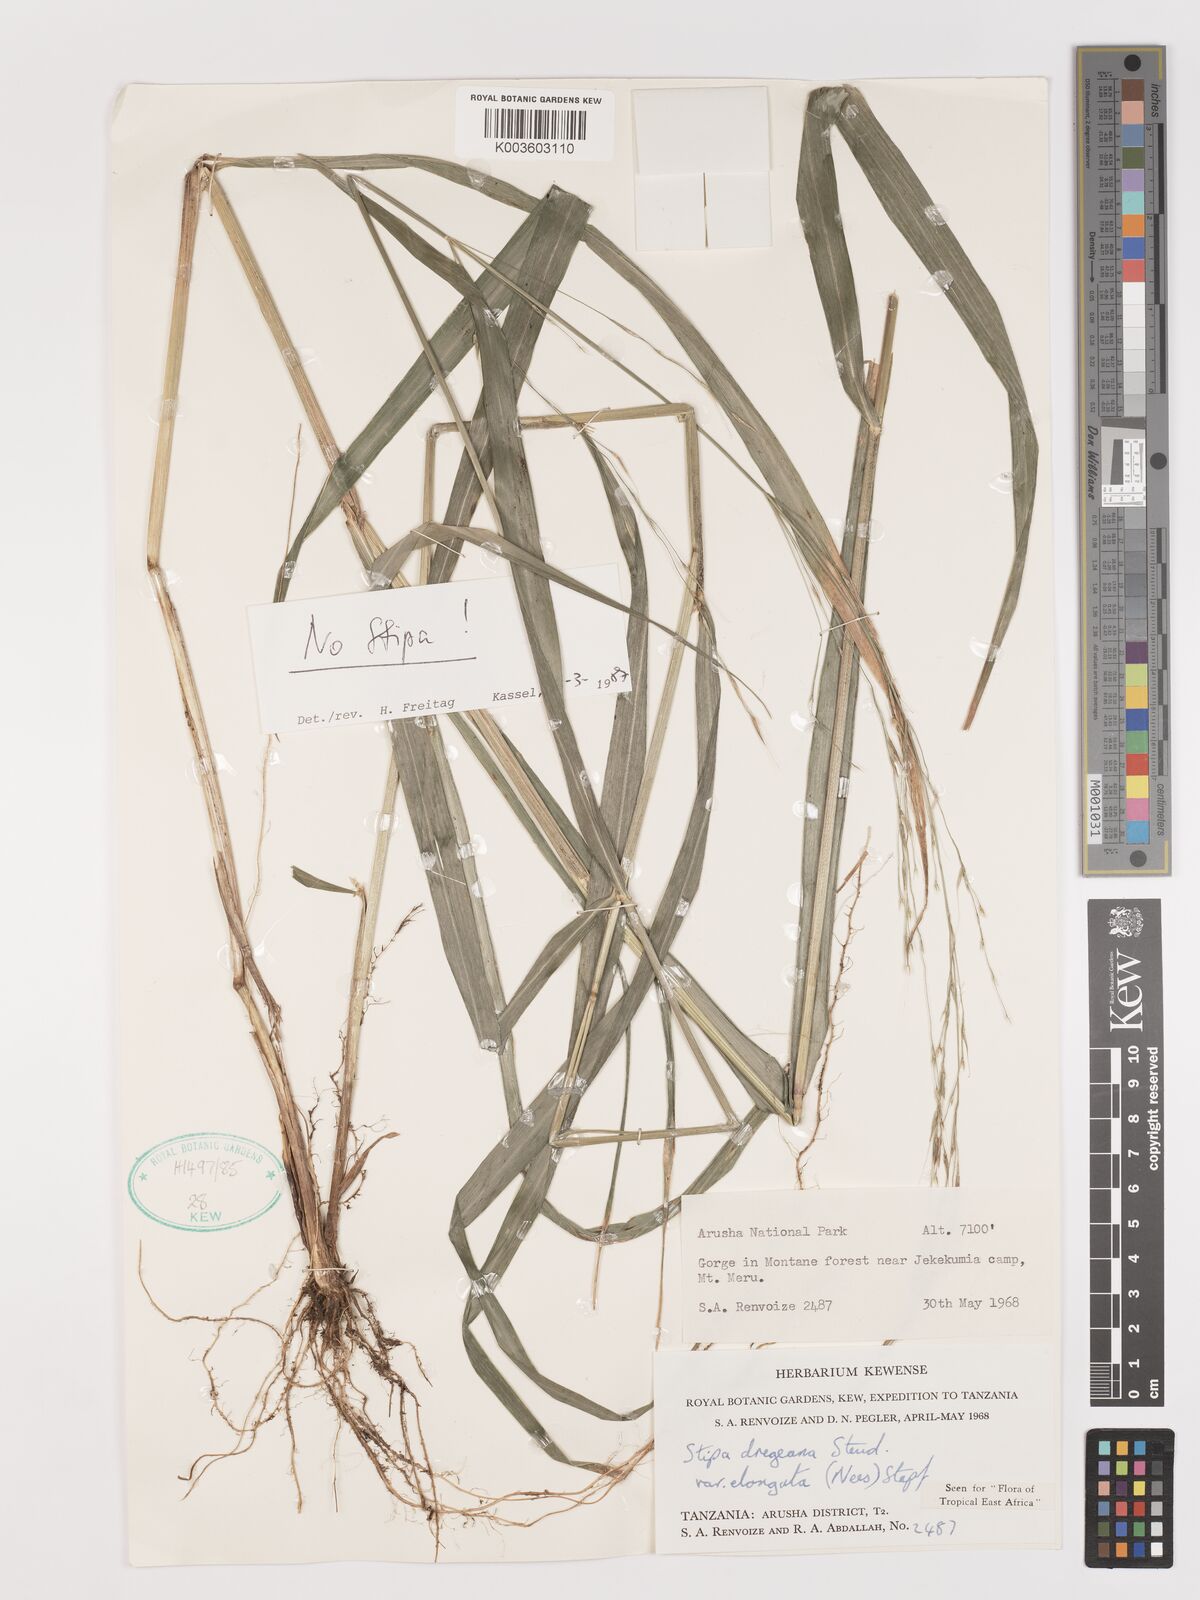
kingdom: Plantae
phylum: Tracheophyta
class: Liliopsida
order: Poales
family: Poaceae
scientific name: Poaceae
